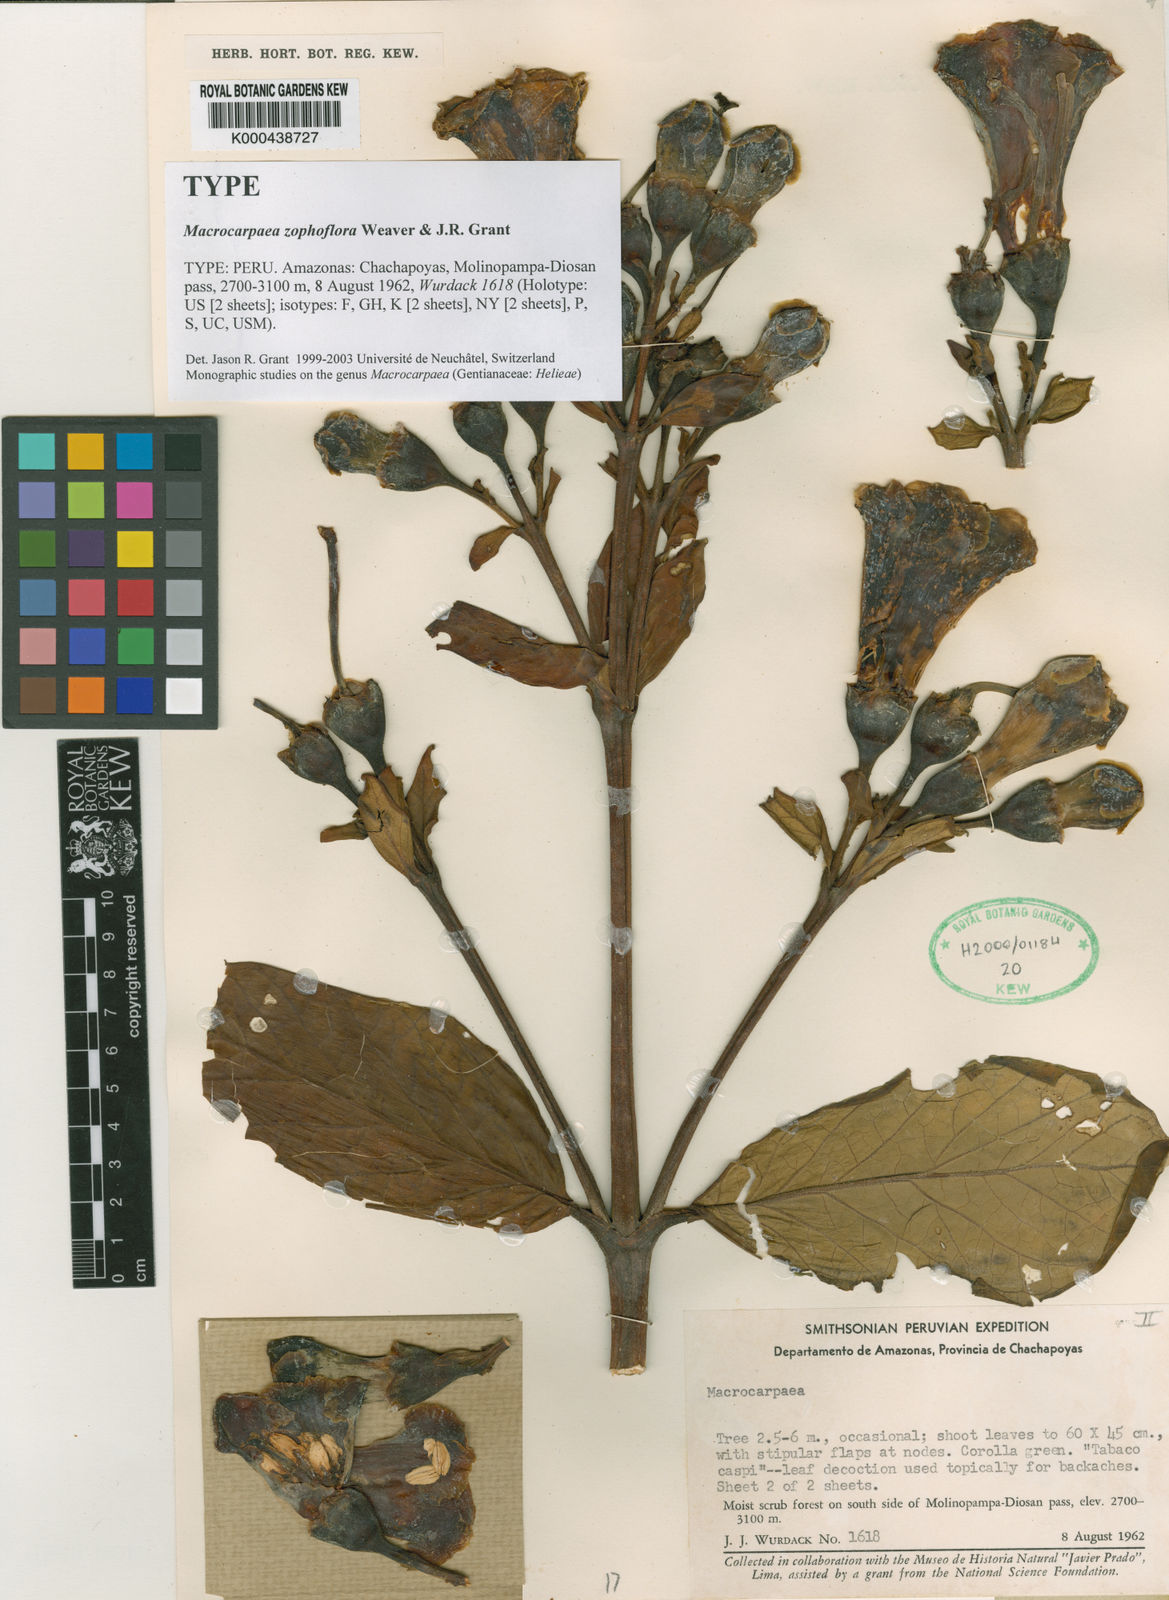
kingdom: Plantae
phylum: Tracheophyta
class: Magnoliopsida
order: Gentianales
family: Gentianaceae
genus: Macrocarpaea
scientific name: Macrocarpaea zophoflora
